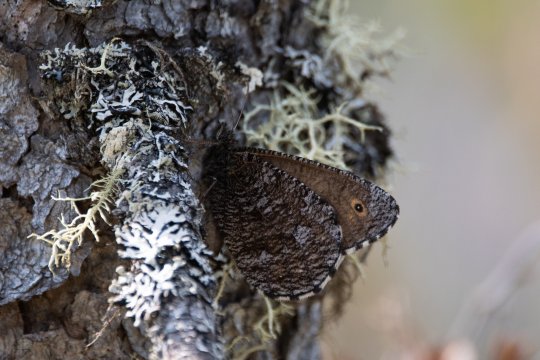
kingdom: Animalia
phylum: Arthropoda
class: Insecta
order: Lepidoptera
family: Nymphalidae
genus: Oeneis
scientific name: Oeneis jutta
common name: Jutta Arctic
